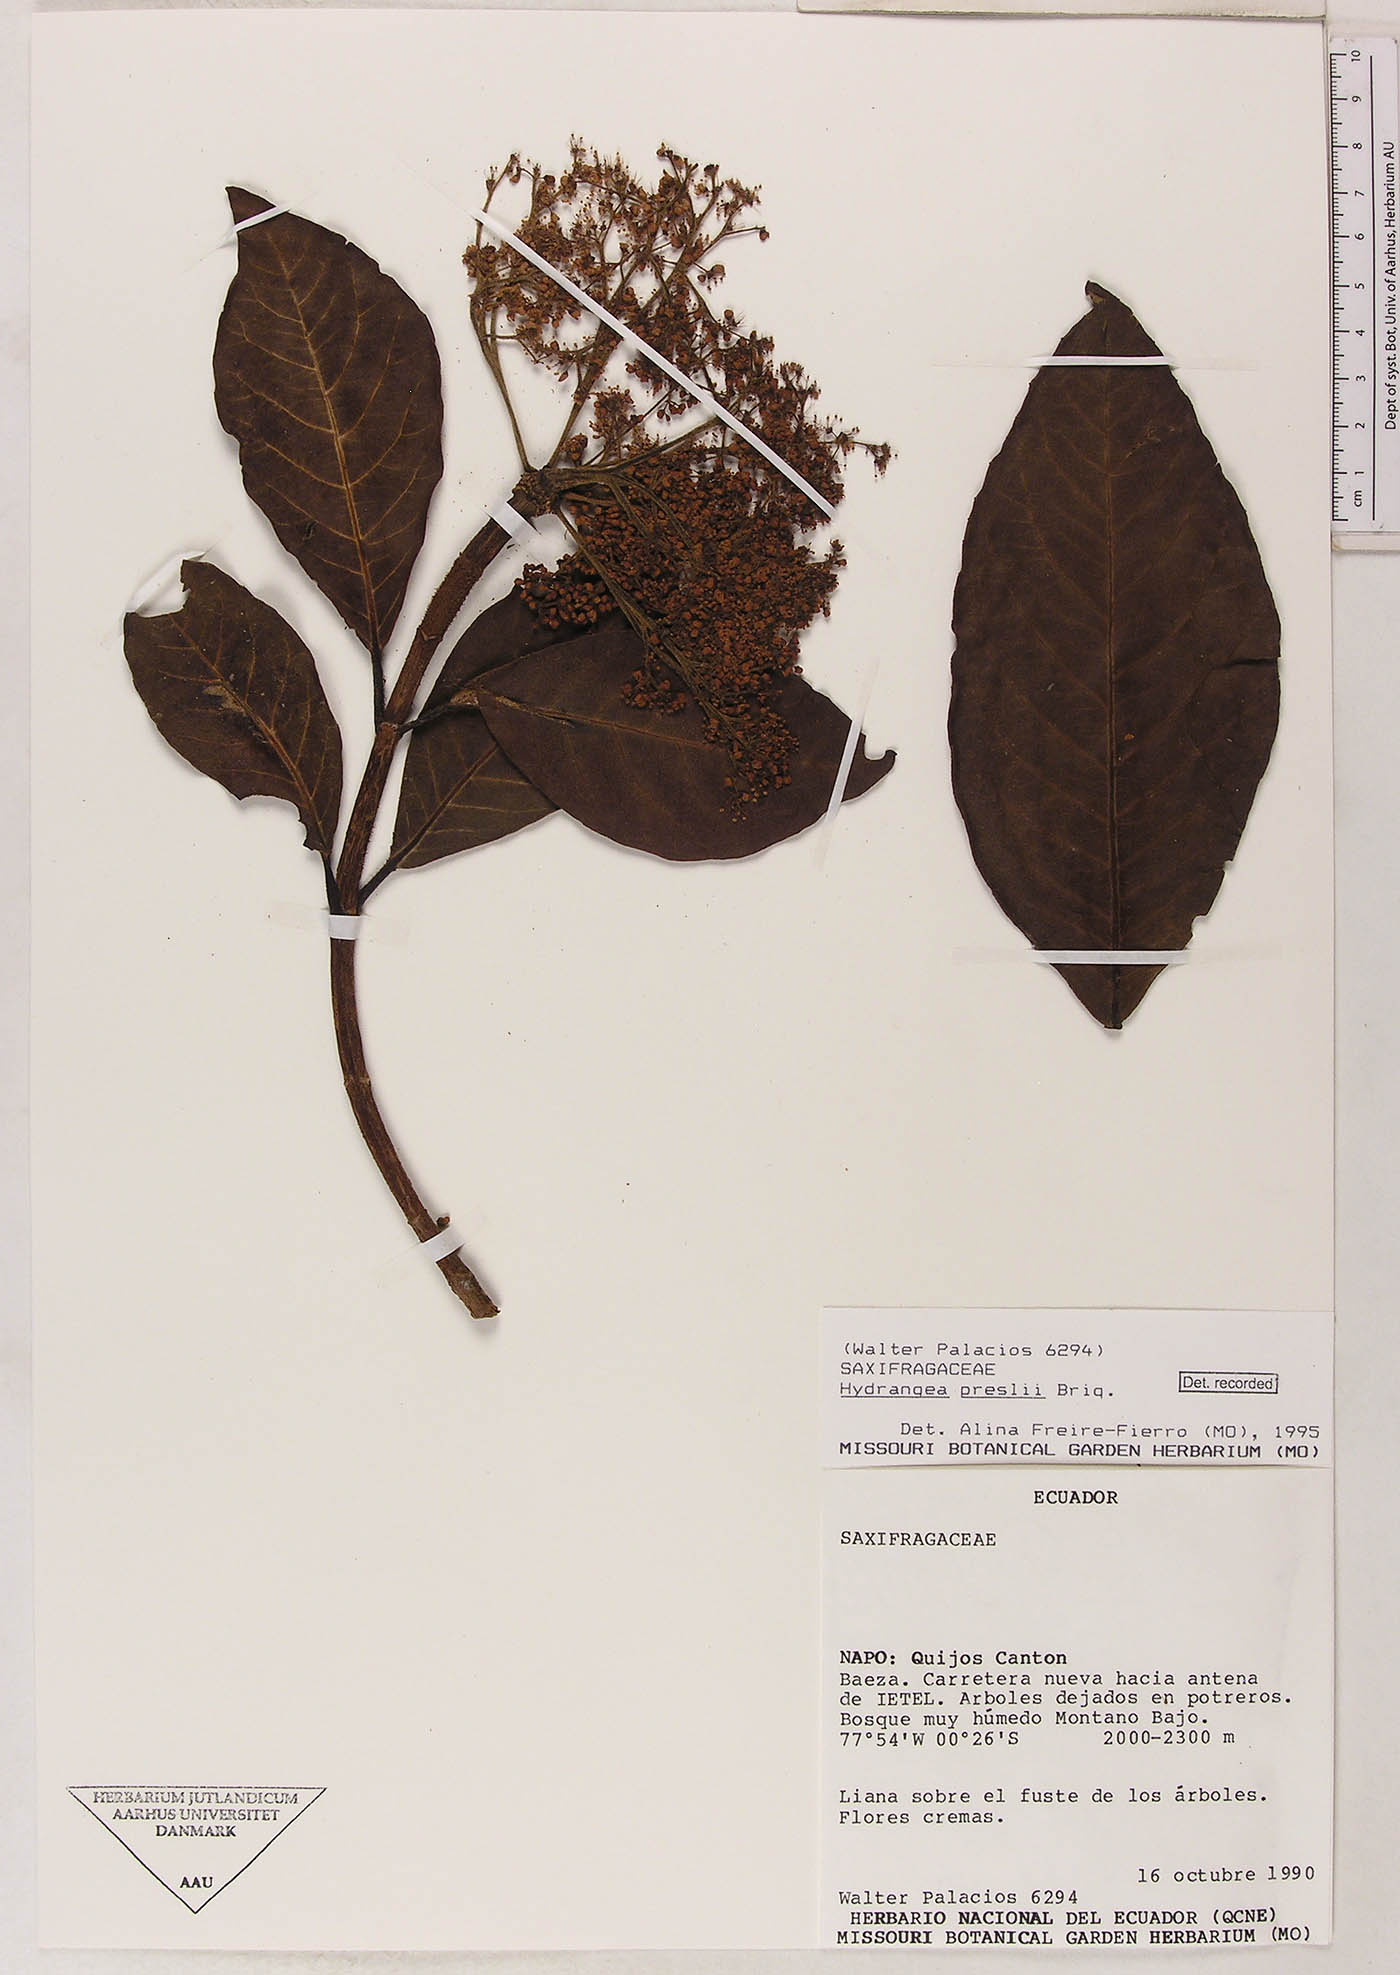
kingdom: Plantae
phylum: Tracheophyta
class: Magnoliopsida
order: Cornales
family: Hydrangeaceae
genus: Hydrangea
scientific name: Hydrangea diplostemona
